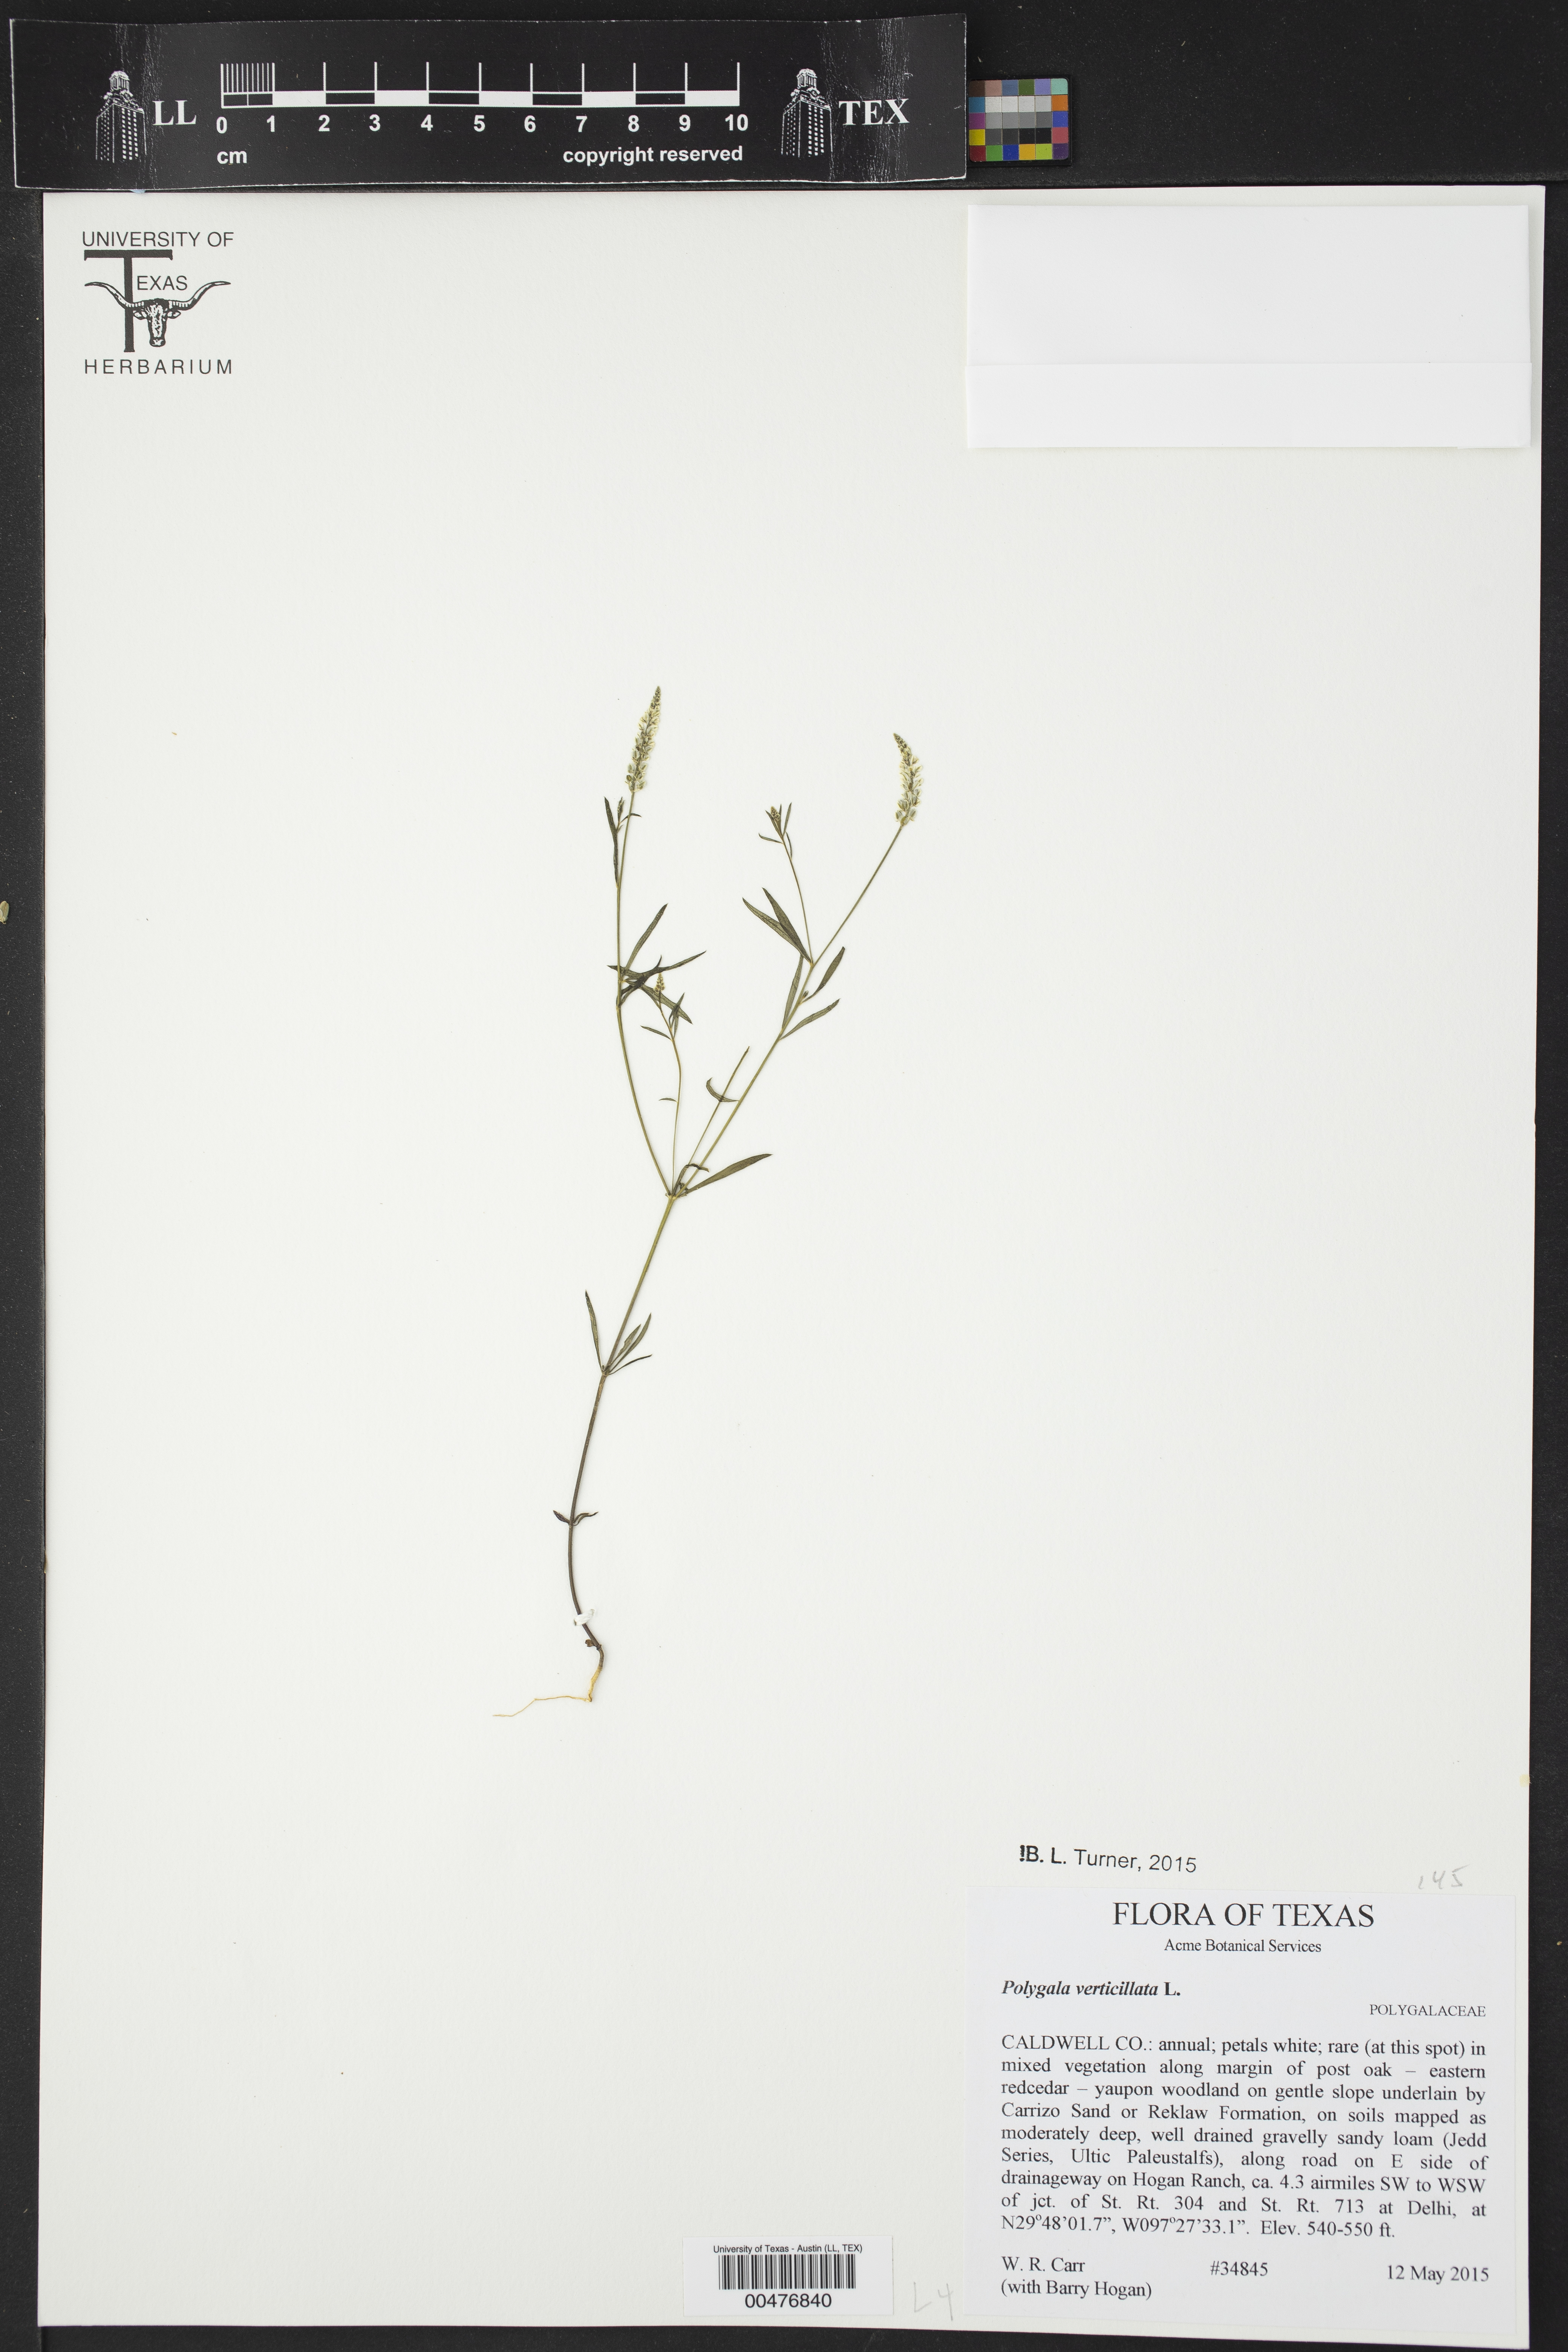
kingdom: Plantae
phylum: Tracheophyta
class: Magnoliopsida
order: Fabales
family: Polygalaceae
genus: Polygala
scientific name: Polygala verticillata
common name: Whorl milkwort
